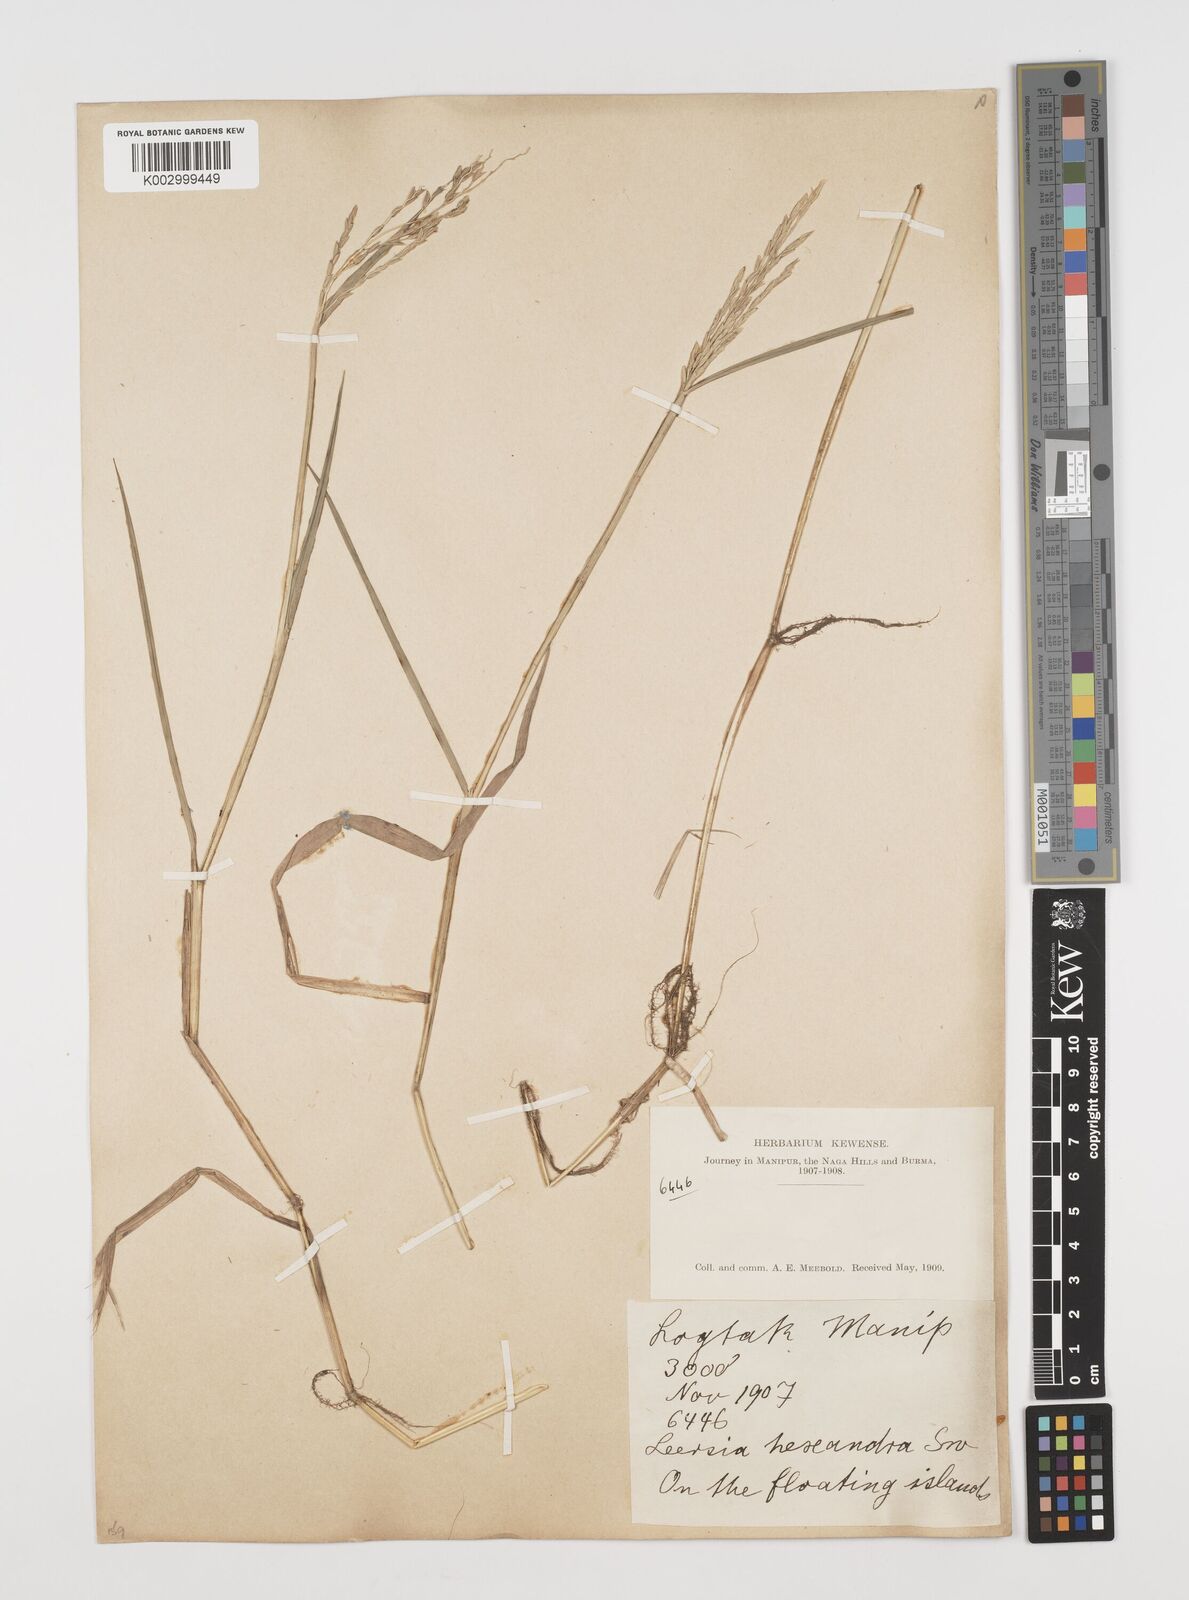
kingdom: Plantae
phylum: Tracheophyta
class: Liliopsida
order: Poales
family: Poaceae
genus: Leersia
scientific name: Leersia hexandra
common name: Southern cut grass
